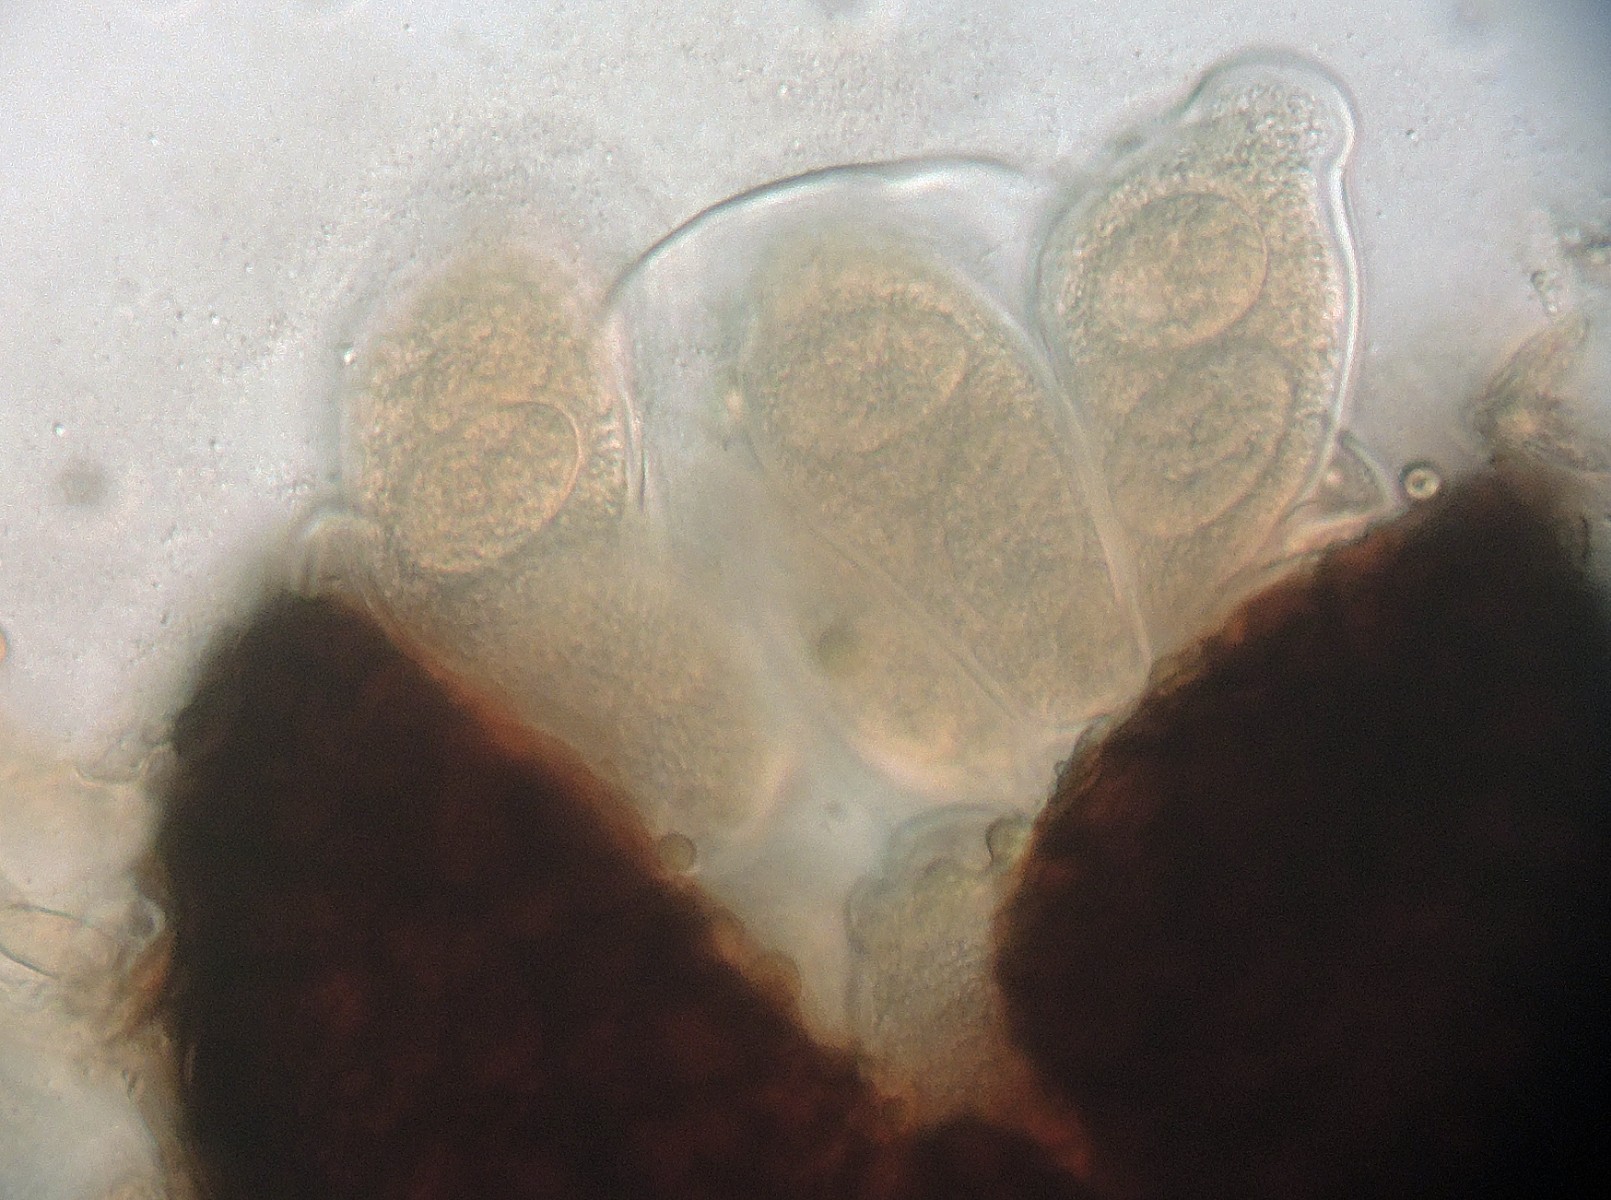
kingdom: Fungi
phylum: Ascomycota
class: Leotiomycetes
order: Helotiales
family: Erysiphaceae
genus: Golovinomyces
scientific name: Golovinomyces depressus
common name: Burdock mildew
